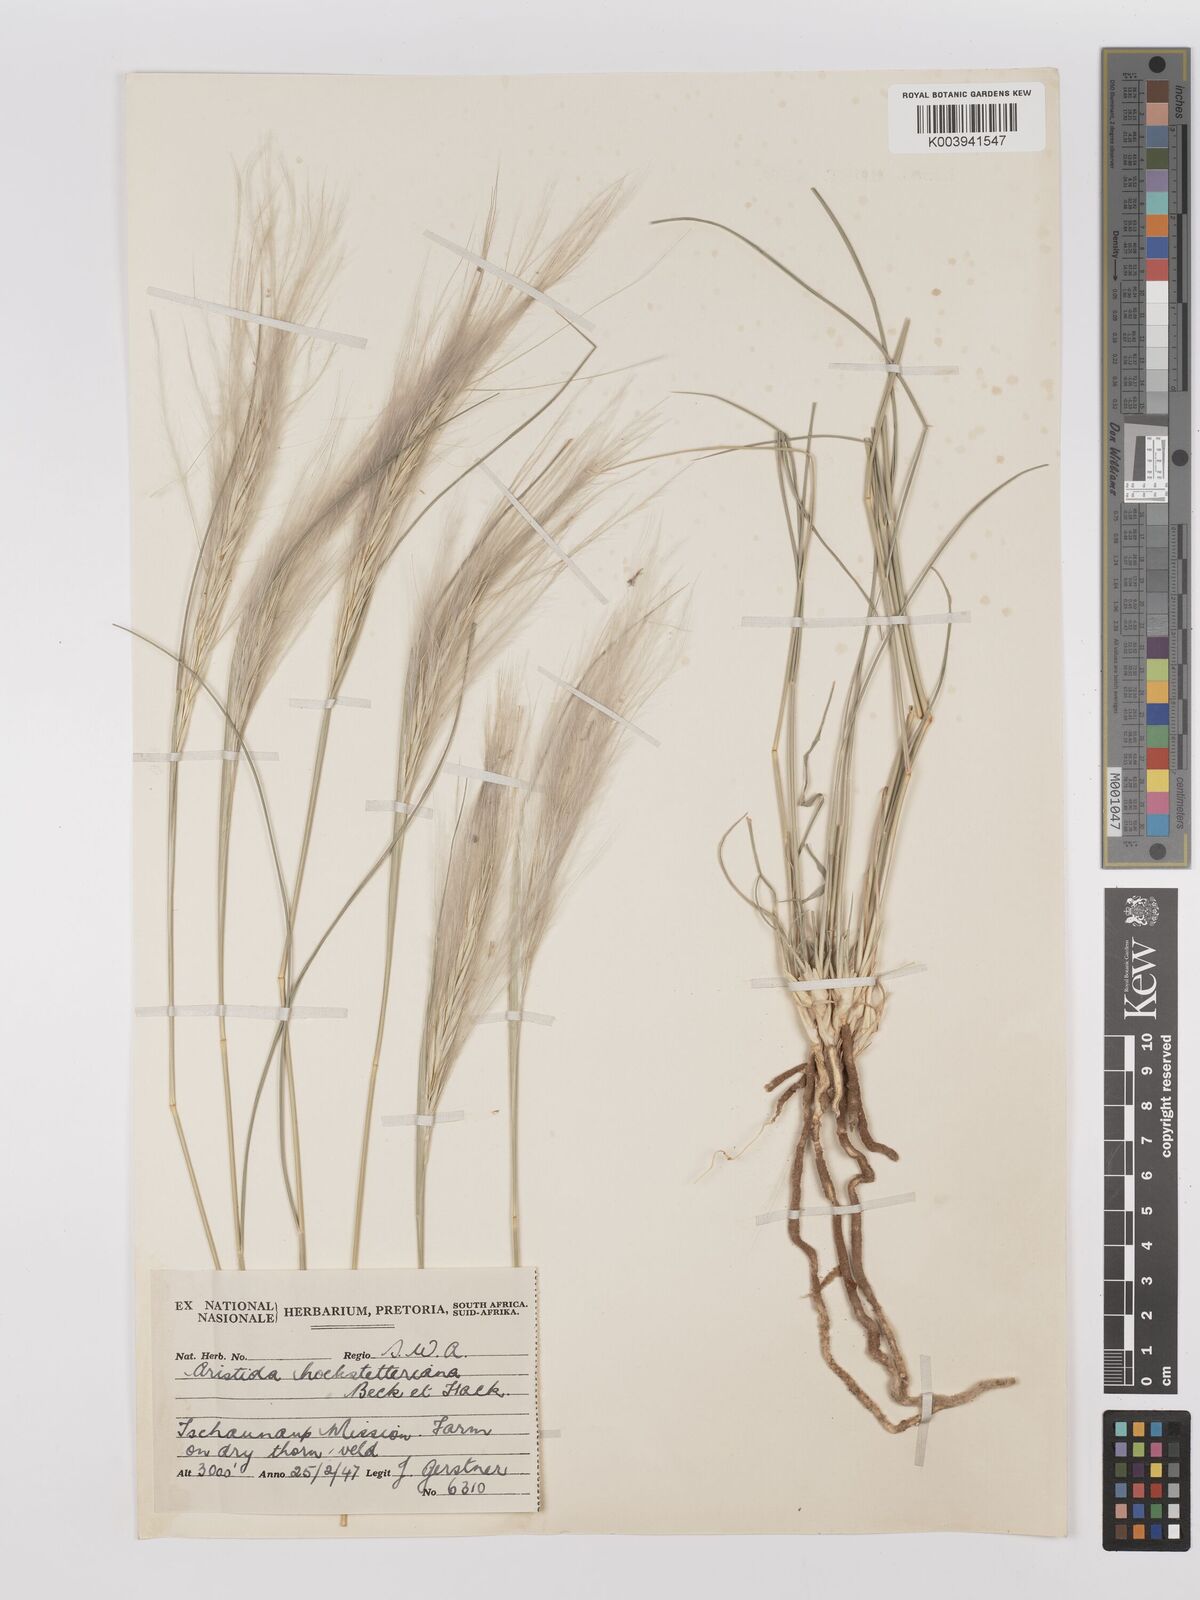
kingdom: Plantae
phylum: Tracheophyta
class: Liliopsida
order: Poales
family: Poaceae
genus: Stipagrostis
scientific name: Stipagrostis hochstetteriana
